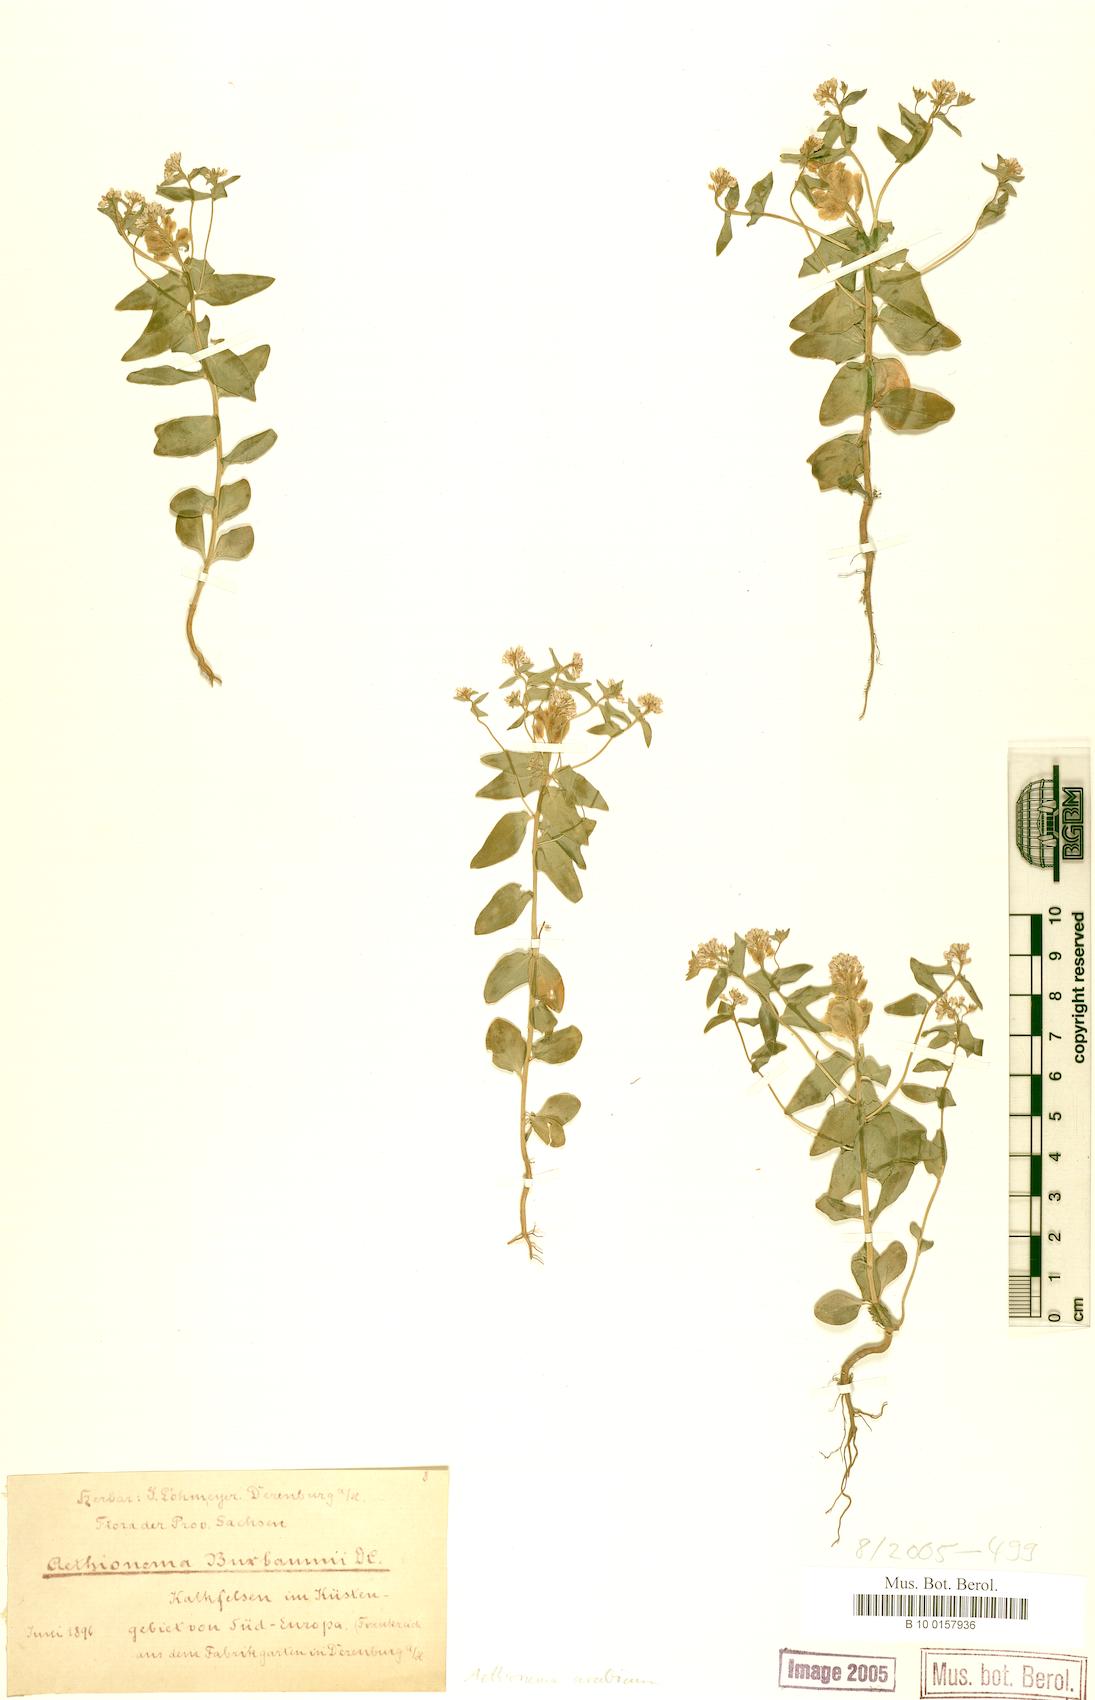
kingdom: Plantae
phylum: Tracheophyta
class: Magnoliopsida
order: Brassicales
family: Brassicaceae
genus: Aethionema
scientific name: Aethionema arabicum
